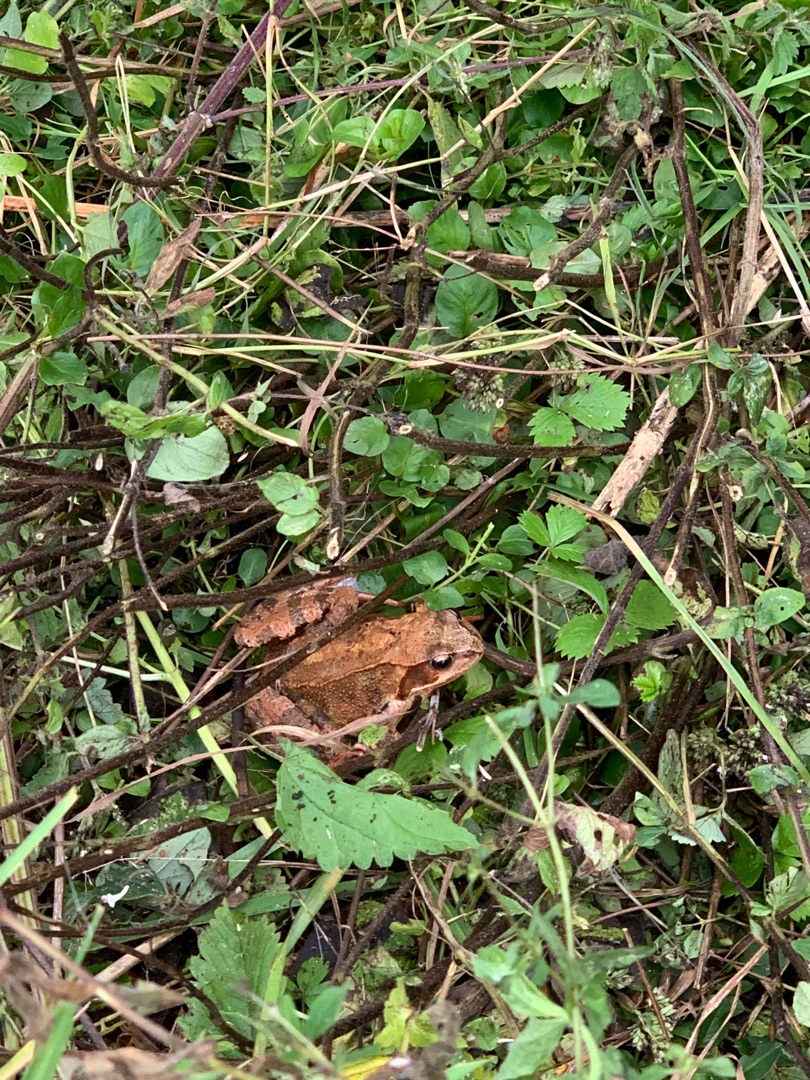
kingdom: Animalia
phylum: Chordata
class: Amphibia
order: Anura
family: Ranidae
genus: Rana
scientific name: Rana temporaria
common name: Butsnudet frø
